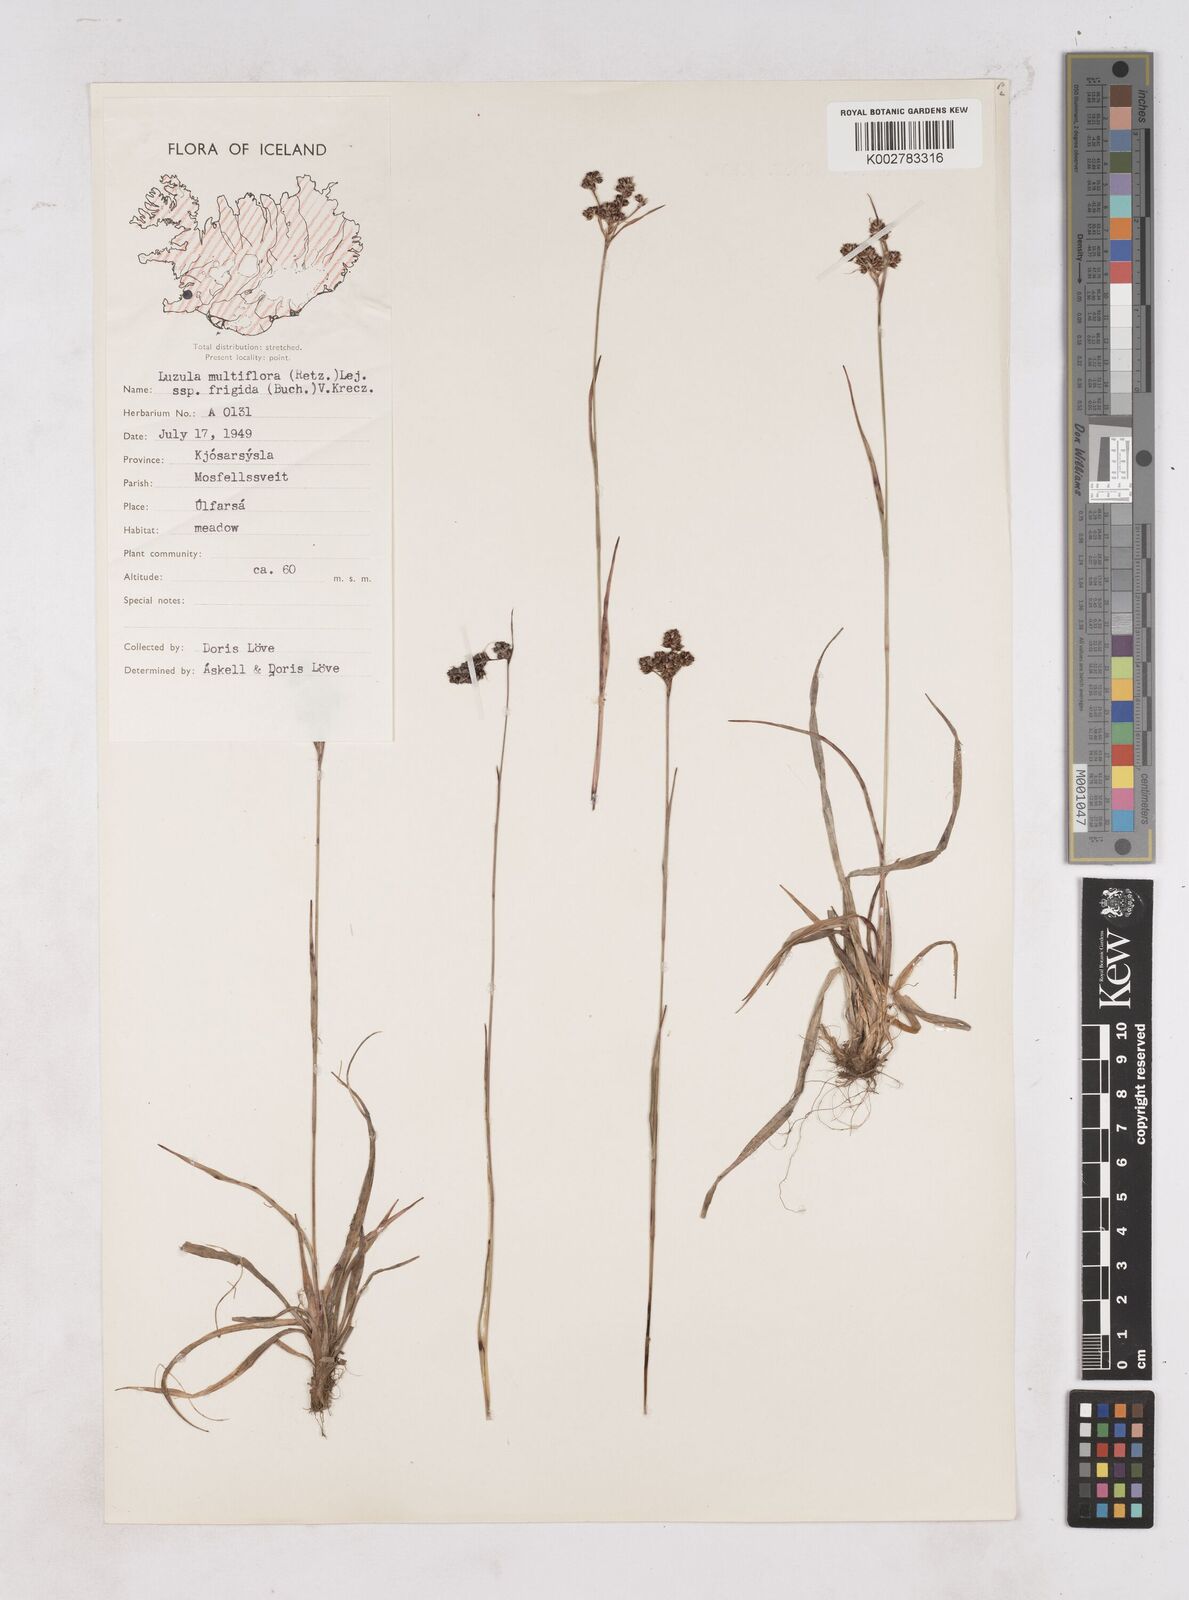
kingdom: Plantae
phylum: Tracheophyta
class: Liliopsida
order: Poales
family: Juncaceae
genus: Luzula
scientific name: Luzula multiflora
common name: Heath wood-rush
